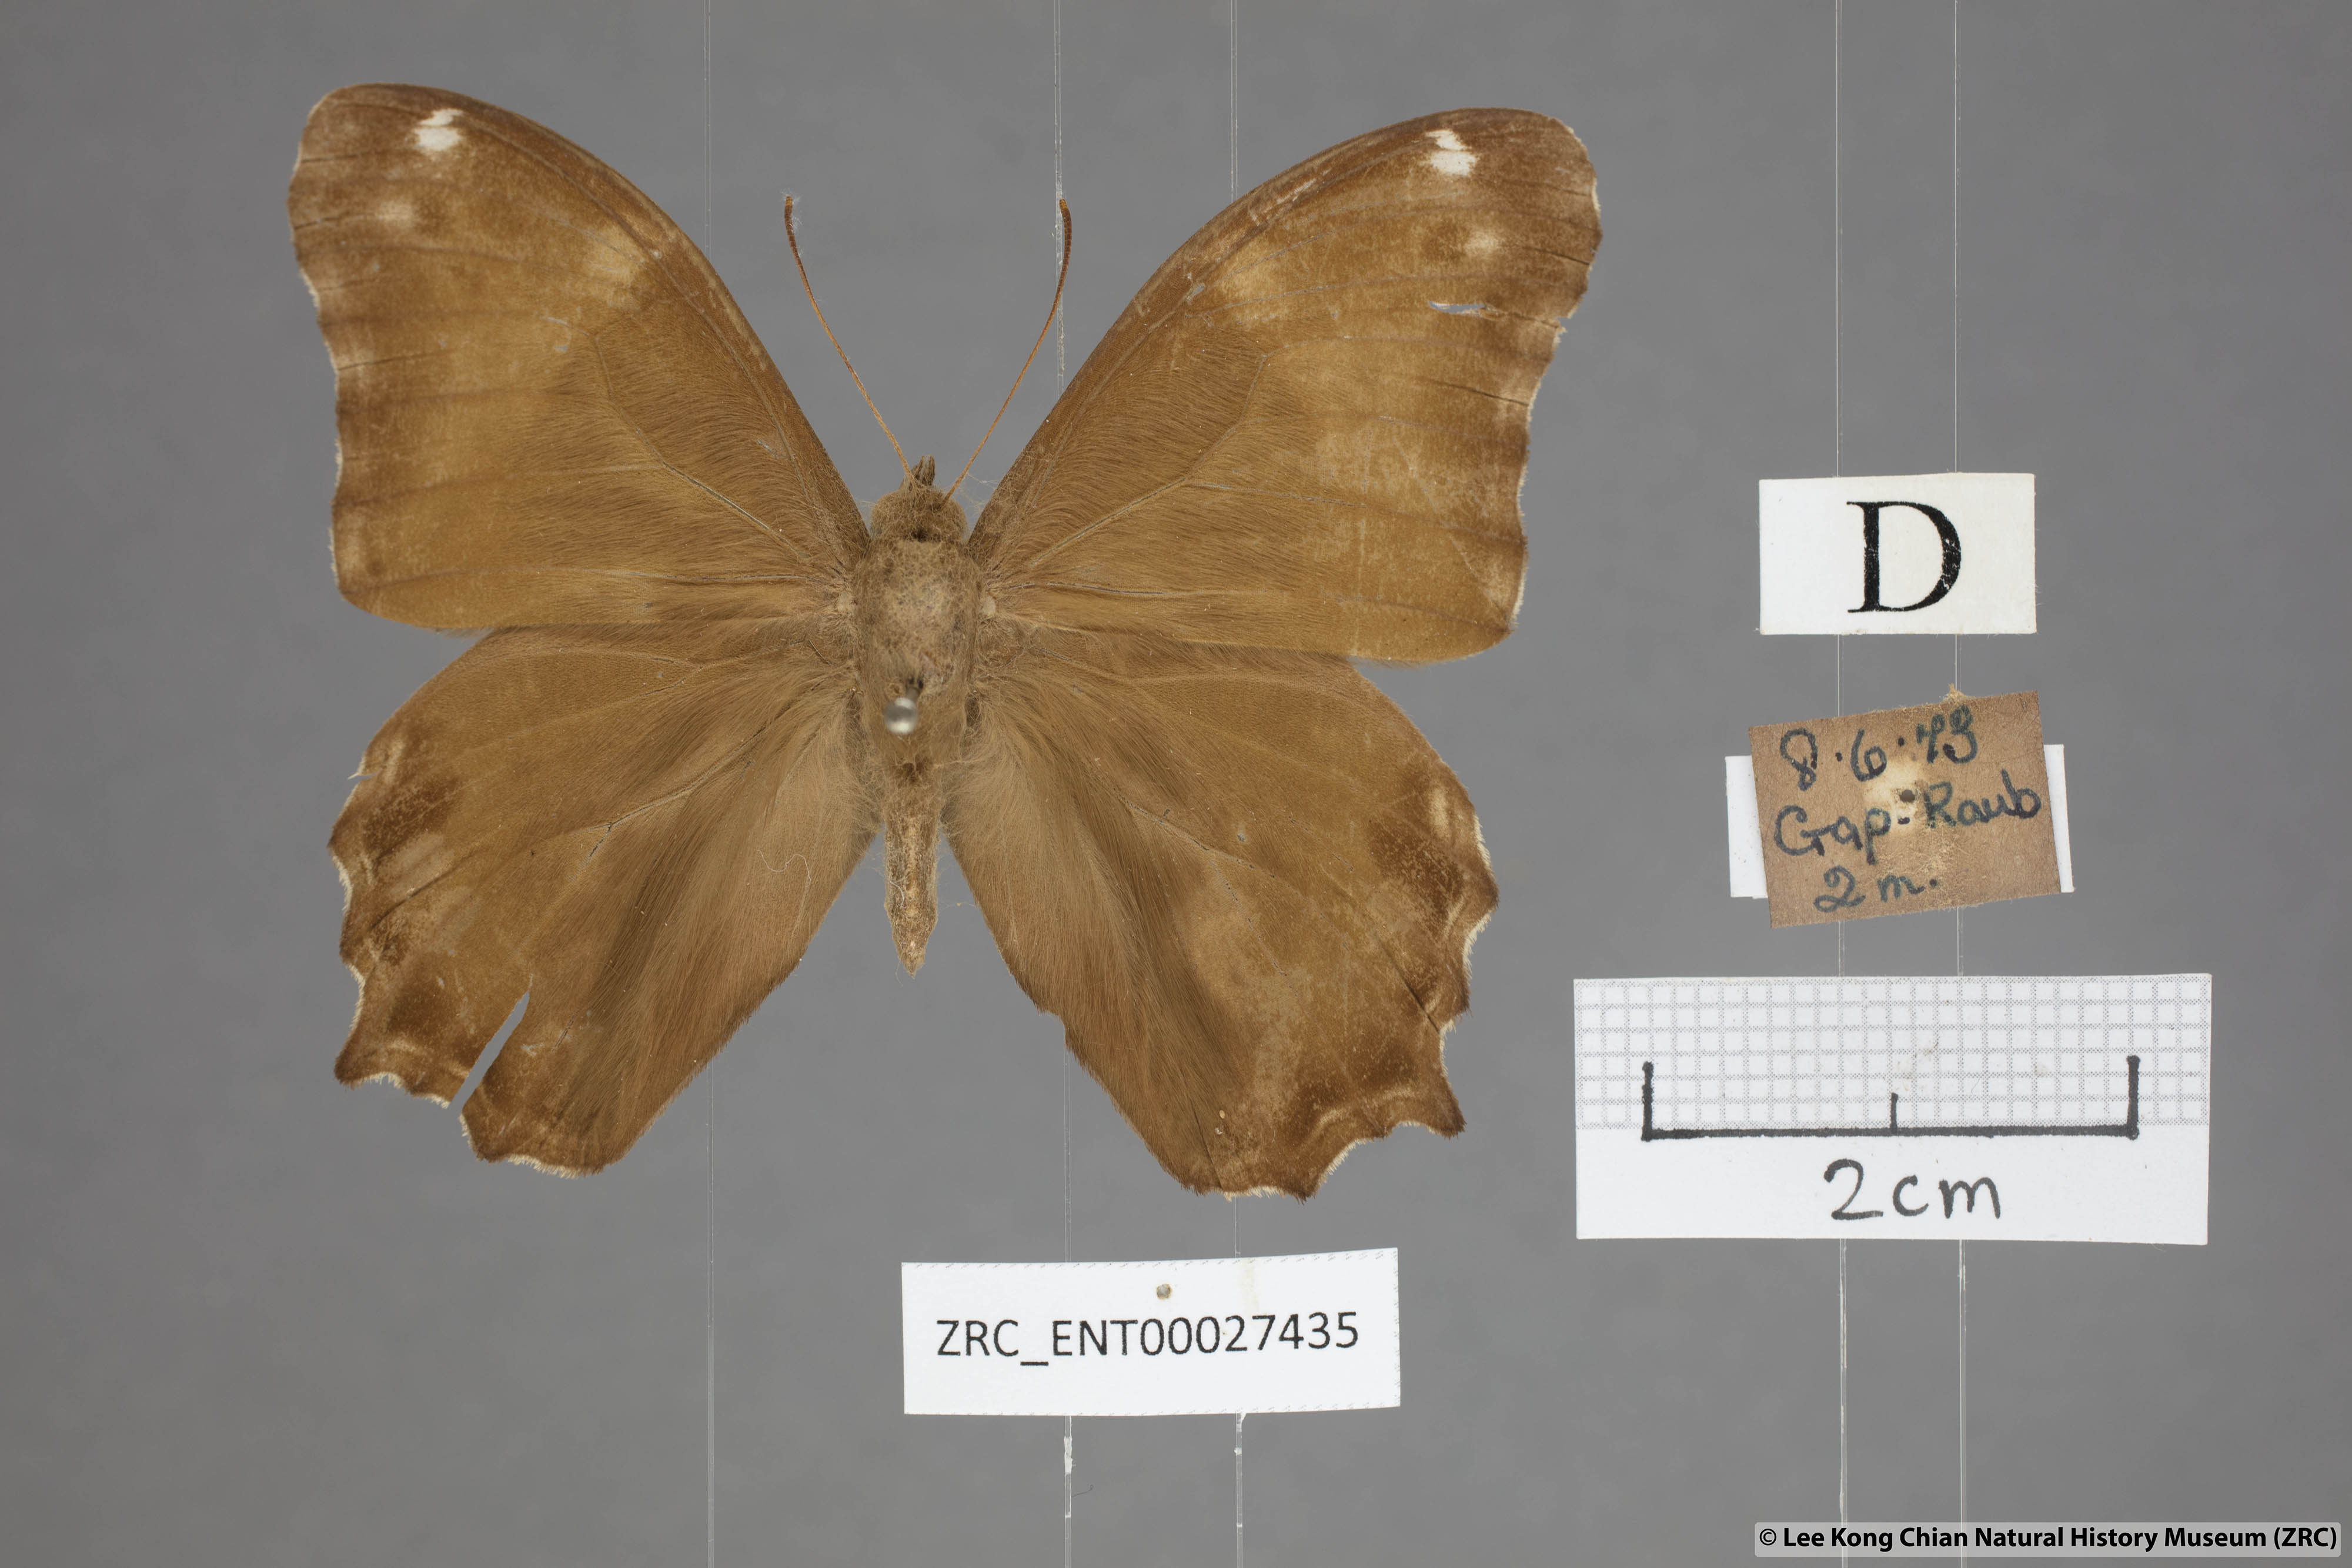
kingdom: Animalia
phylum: Arthropoda
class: Insecta
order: Lepidoptera
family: Nymphalidae
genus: Lethe
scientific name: Lethe europa
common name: Bamboo treebrown
